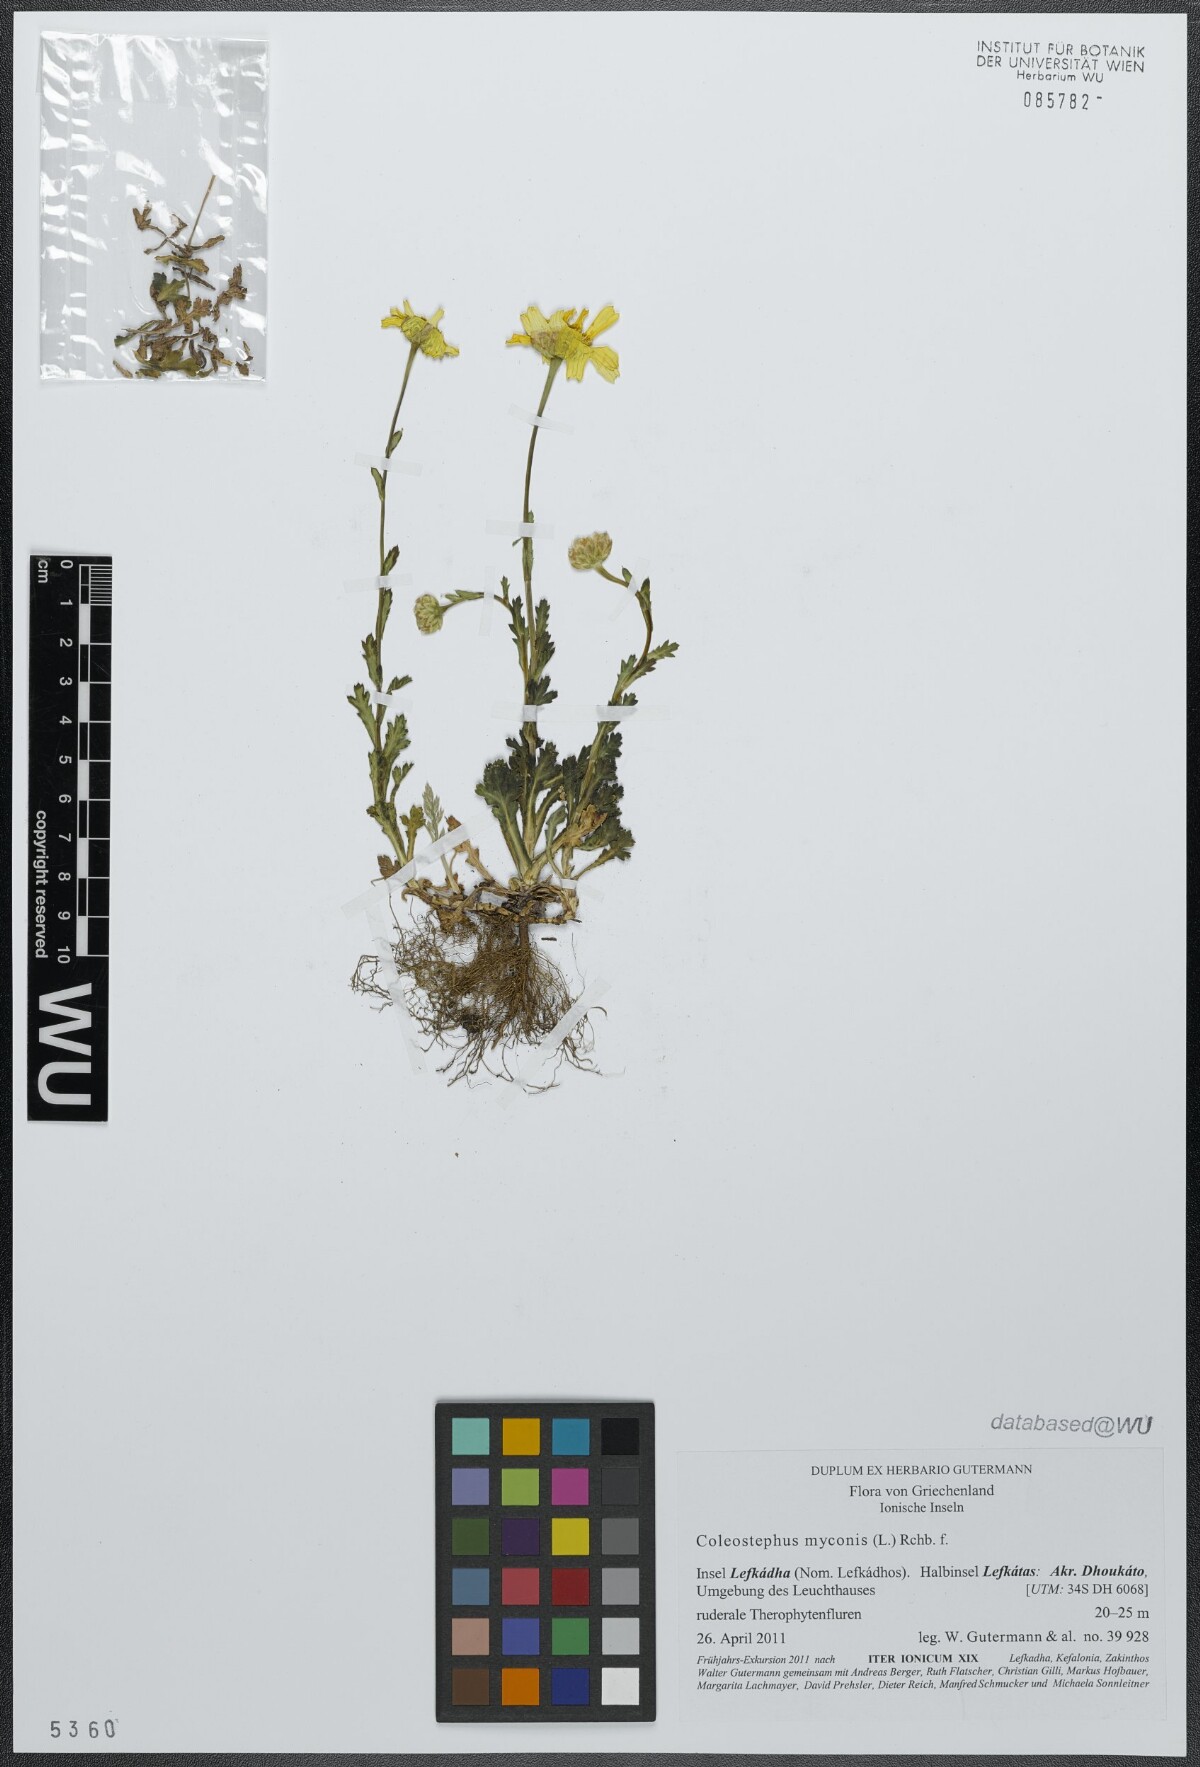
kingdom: Plantae
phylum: Tracheophyta
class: Magnoliopsida
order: Asterales
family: Asteraceae
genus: Coleostephus
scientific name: Coleostephus myconis
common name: Mediterranean marigold
